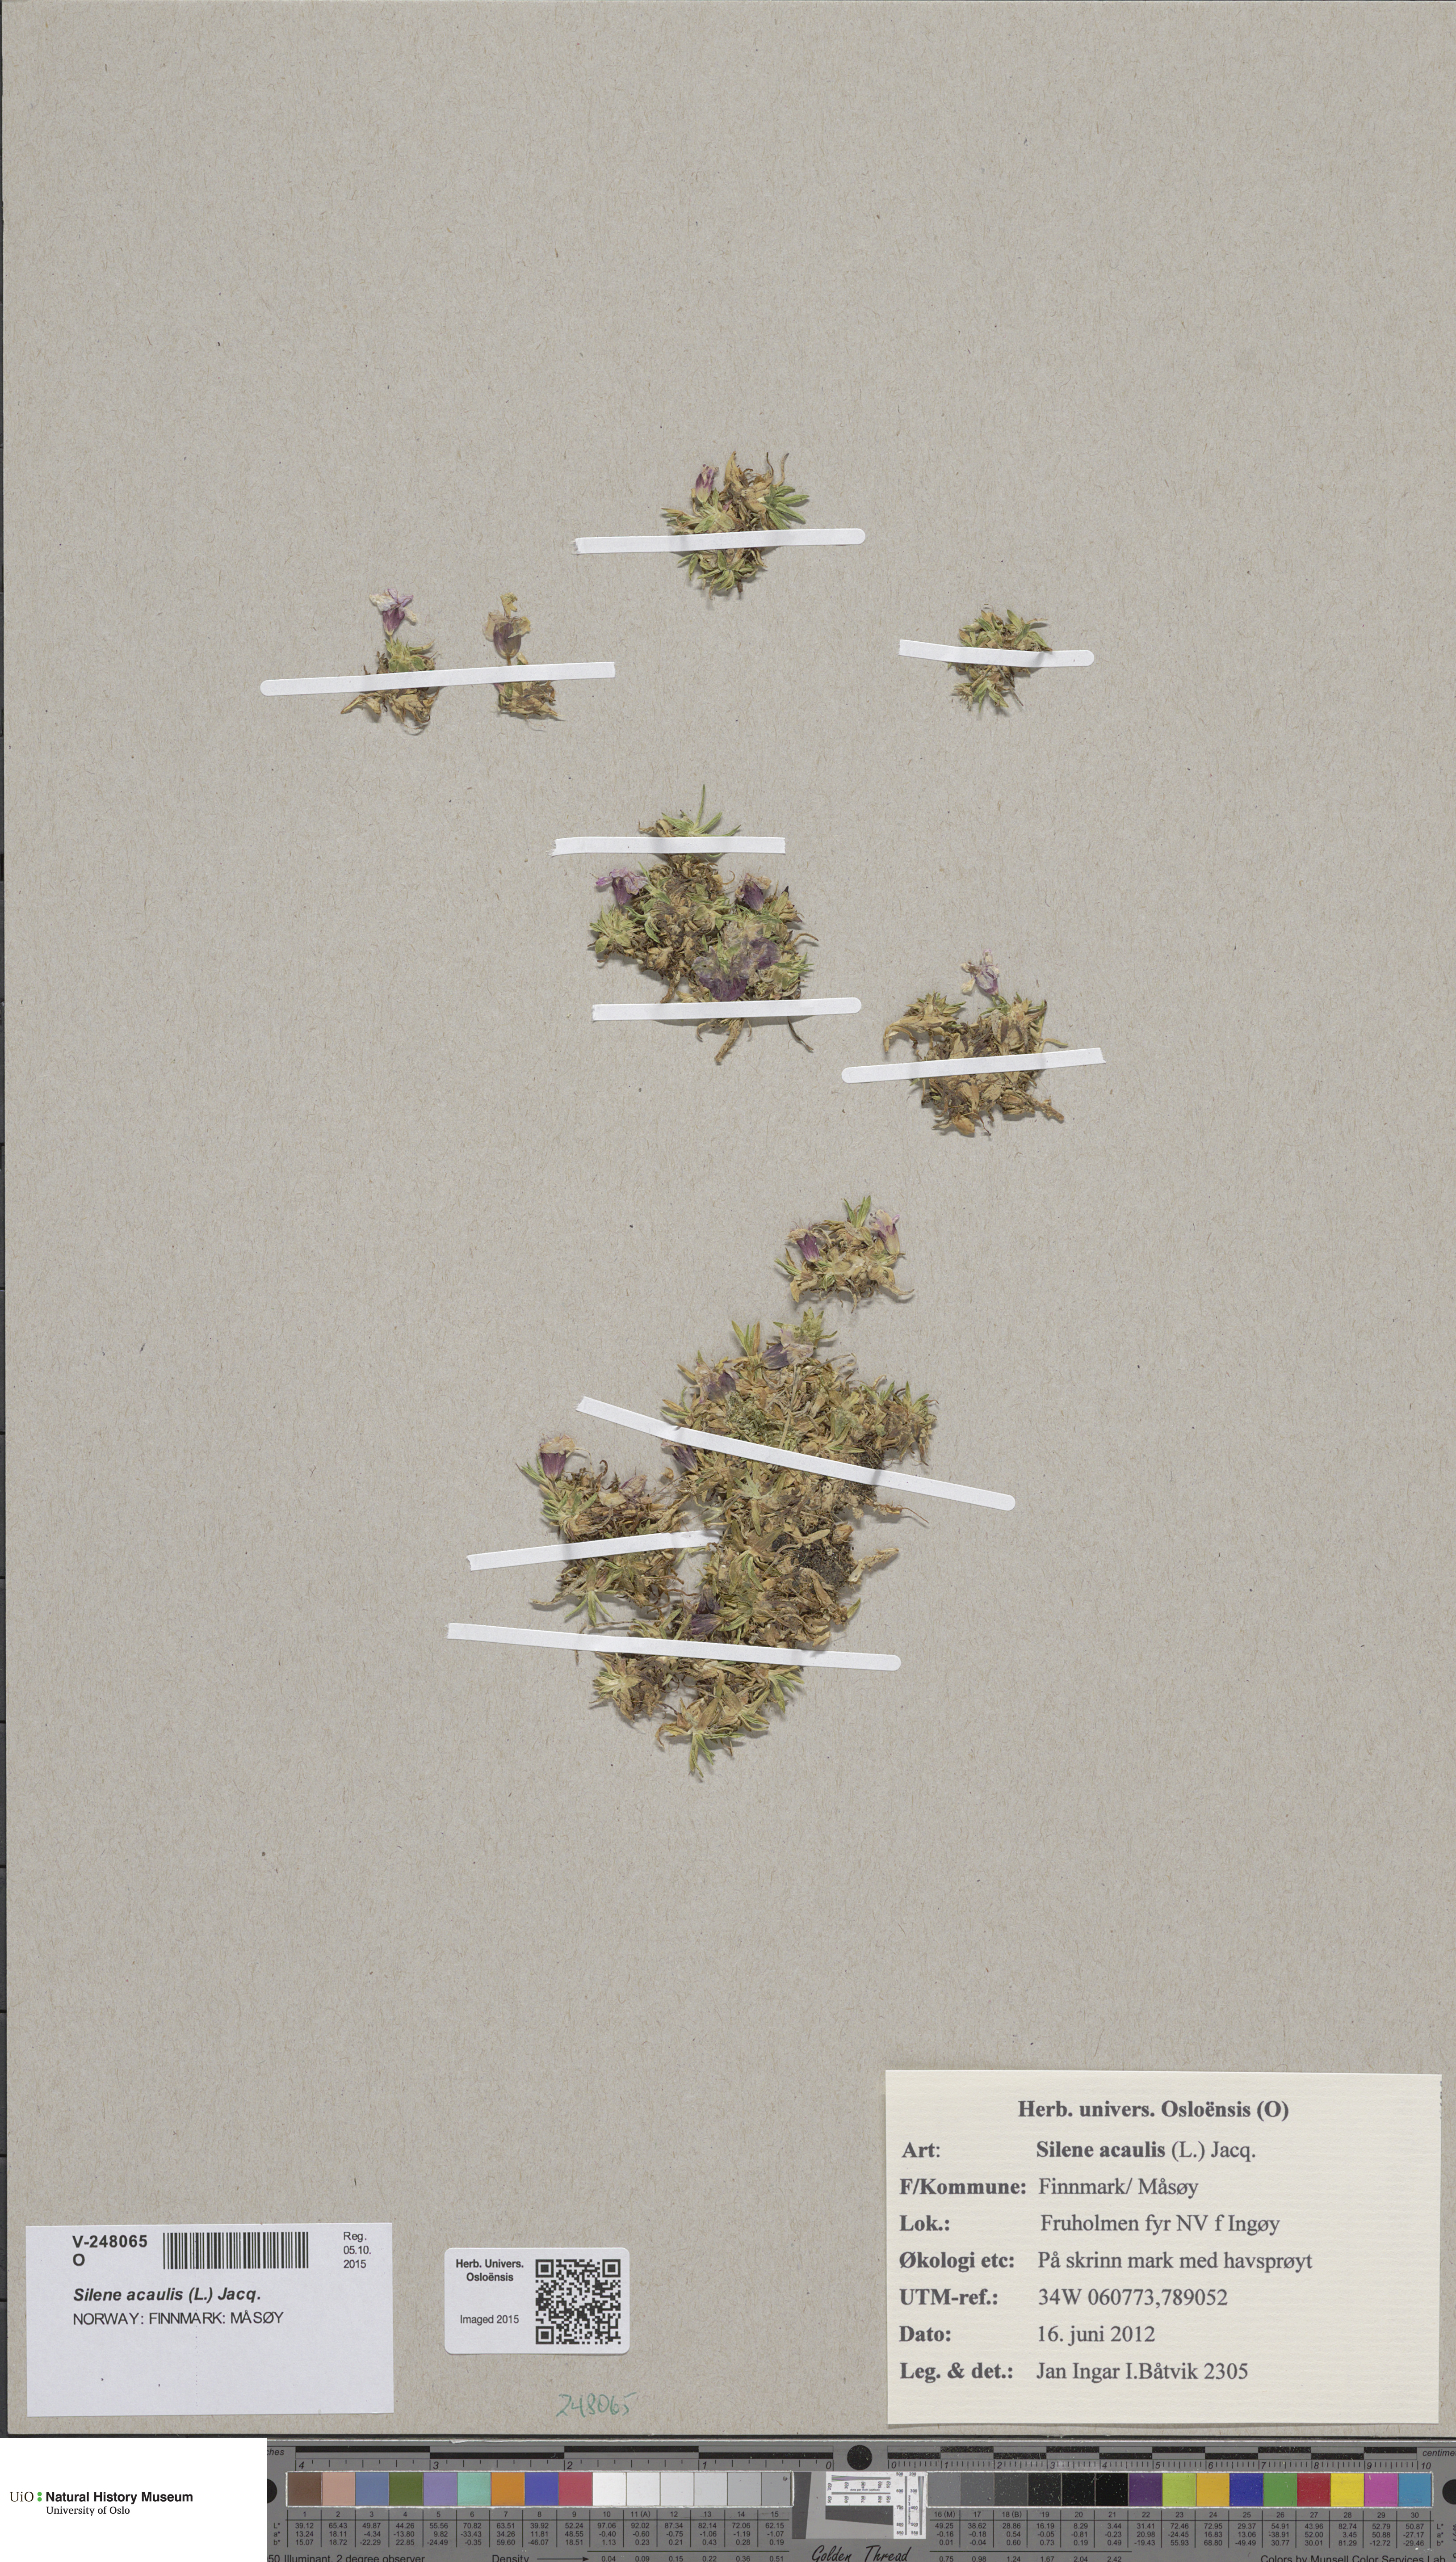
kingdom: Plantae
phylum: Tracheophyta
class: Magnoliopsida
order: Caryophyllales
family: Caryophyllaceae
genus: Silene
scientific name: Silene acaulis
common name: Moss campion
